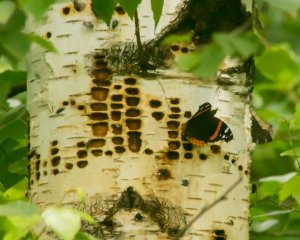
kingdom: Animalia
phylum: Arthropoda
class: Insecta
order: Lepidoptera
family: Nymphalidae
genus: Vanessa
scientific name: Vanessa atalanta
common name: Red Admiral
